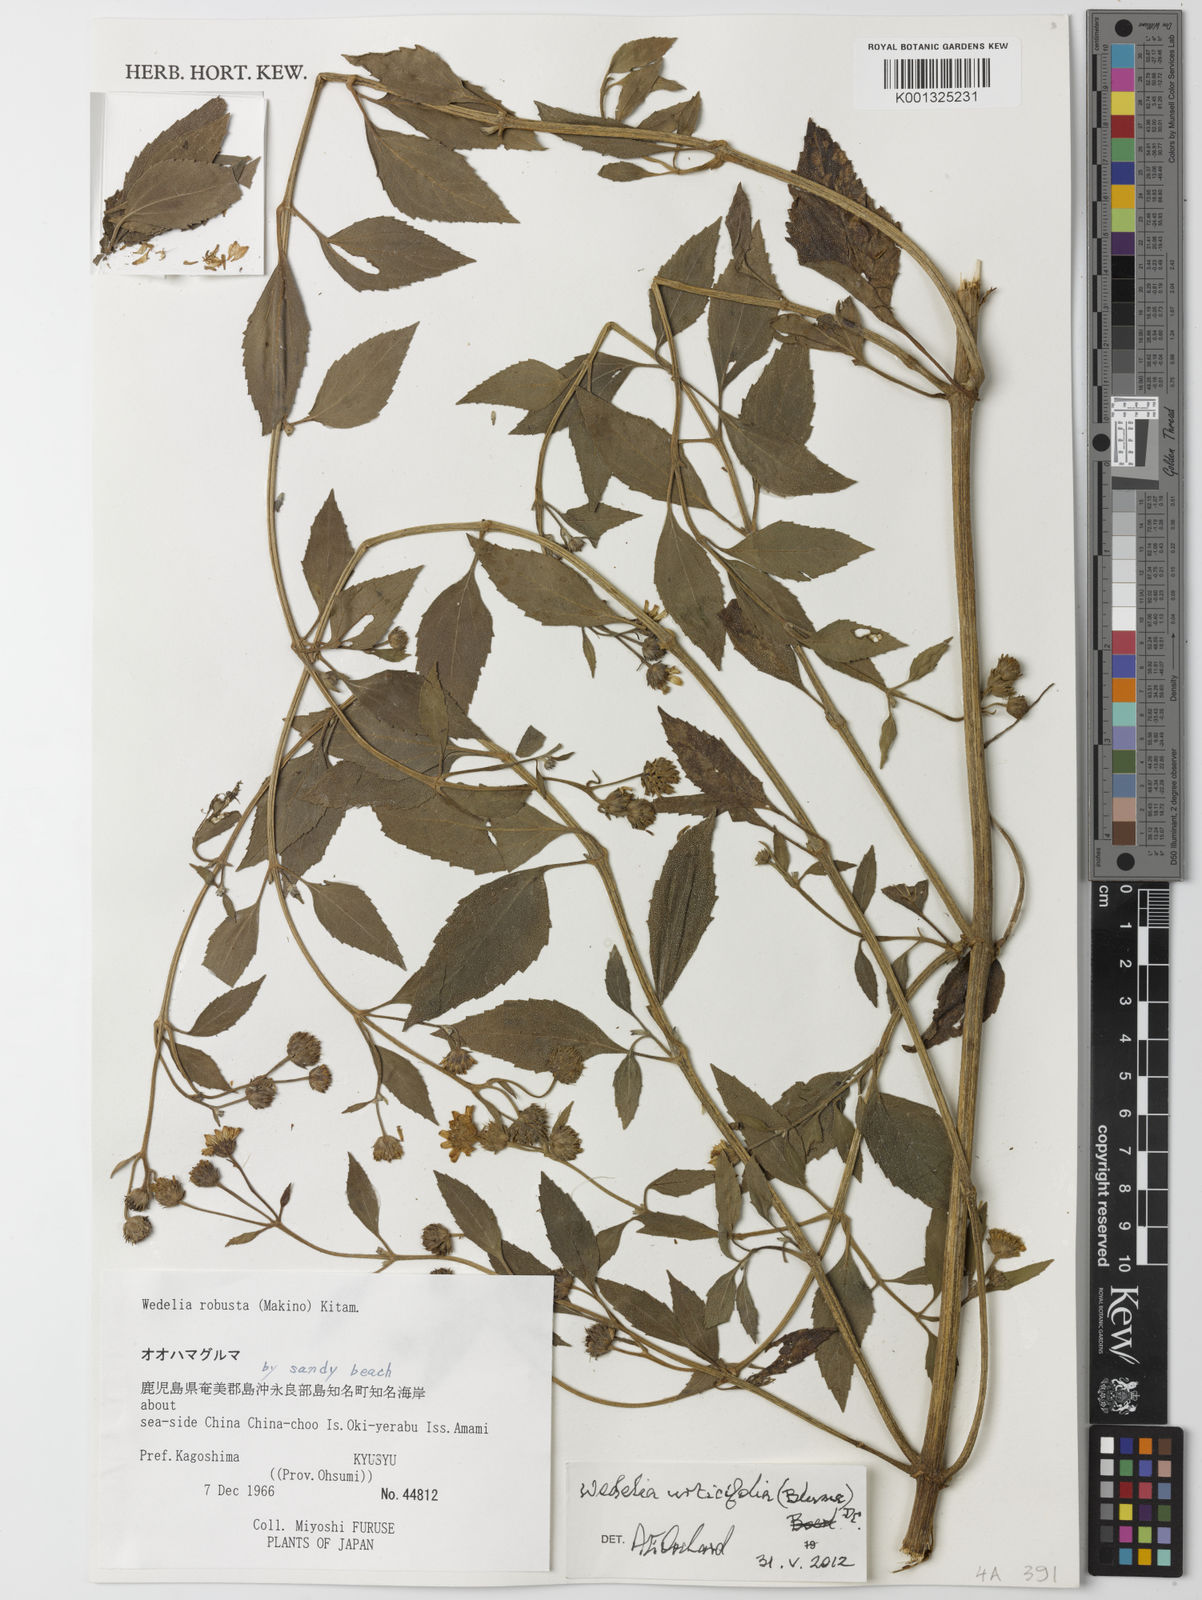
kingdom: Plantae
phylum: Tracheophyta
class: Magnoliopsida
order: Asterales
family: Asteraceae
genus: Lipoblepharis
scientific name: Lipoblepharis urticifolia
